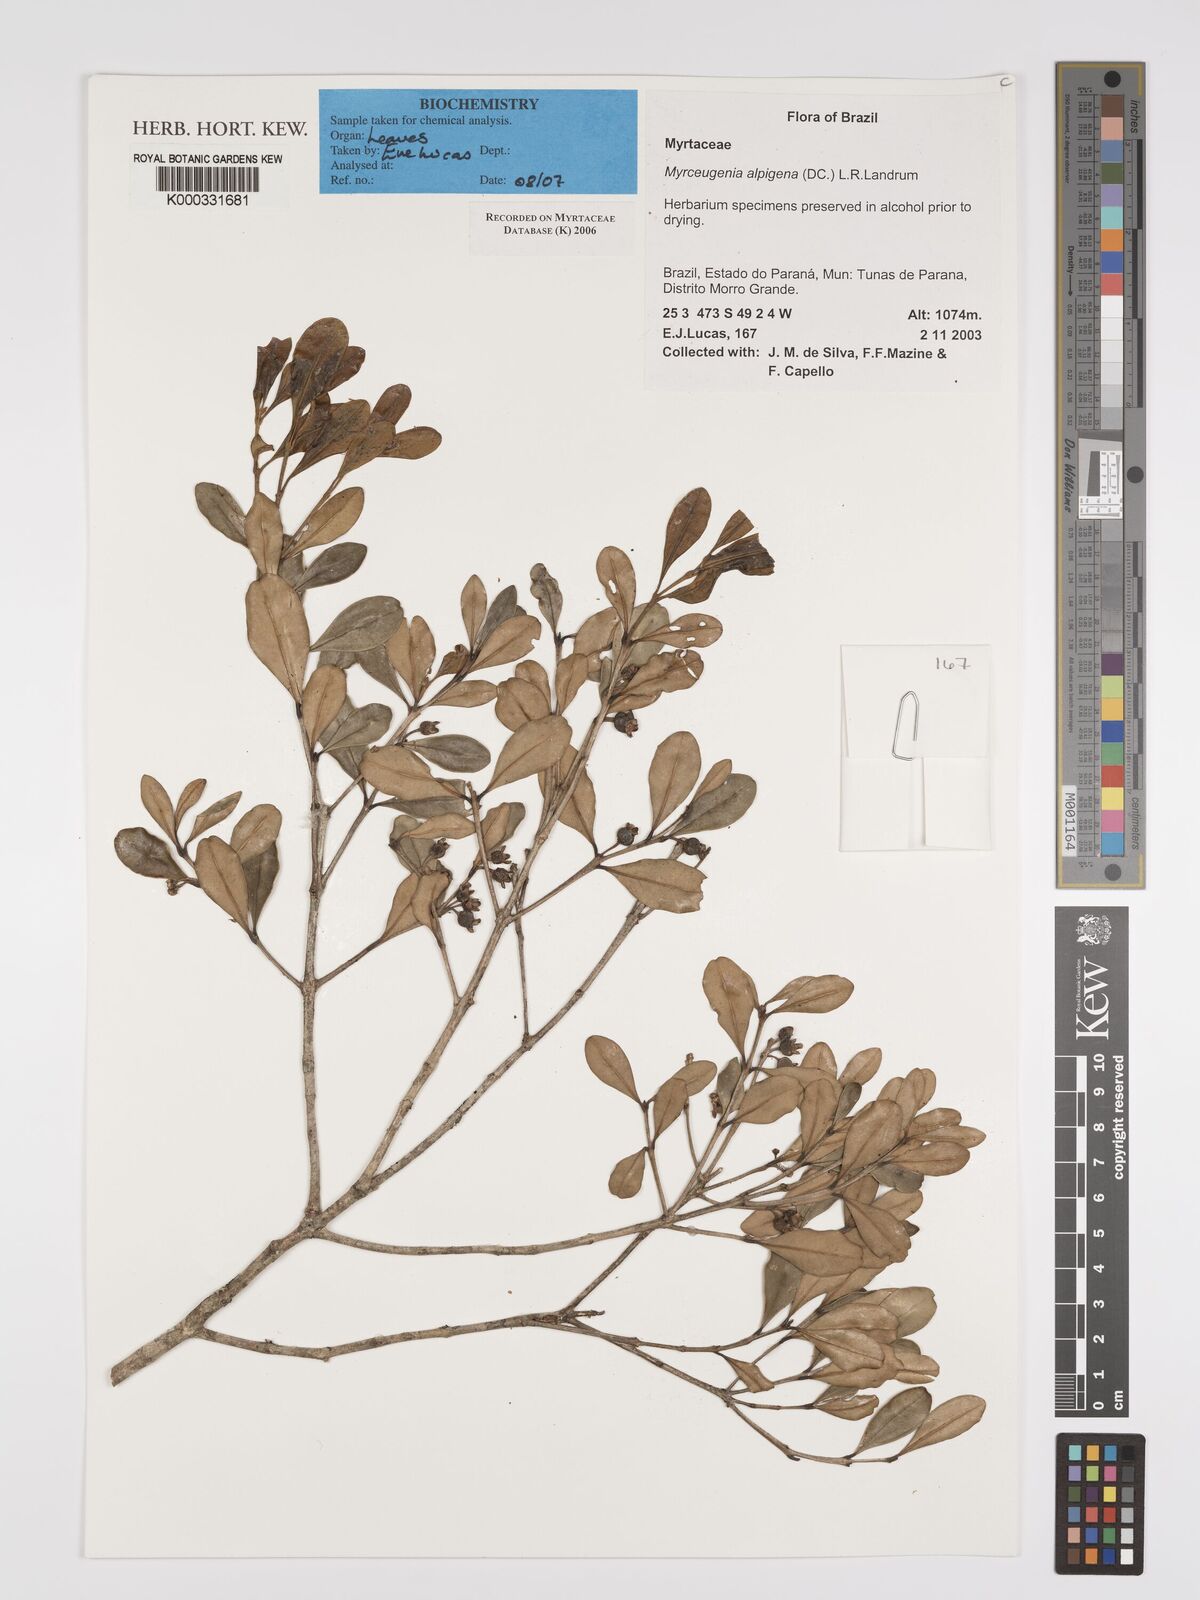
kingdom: Plantae
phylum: Tracheophyta
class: Magnoliopsida
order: Myrtales
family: Myrtaceae
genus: Myrceugenia
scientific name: Myrceugenia alpigena
